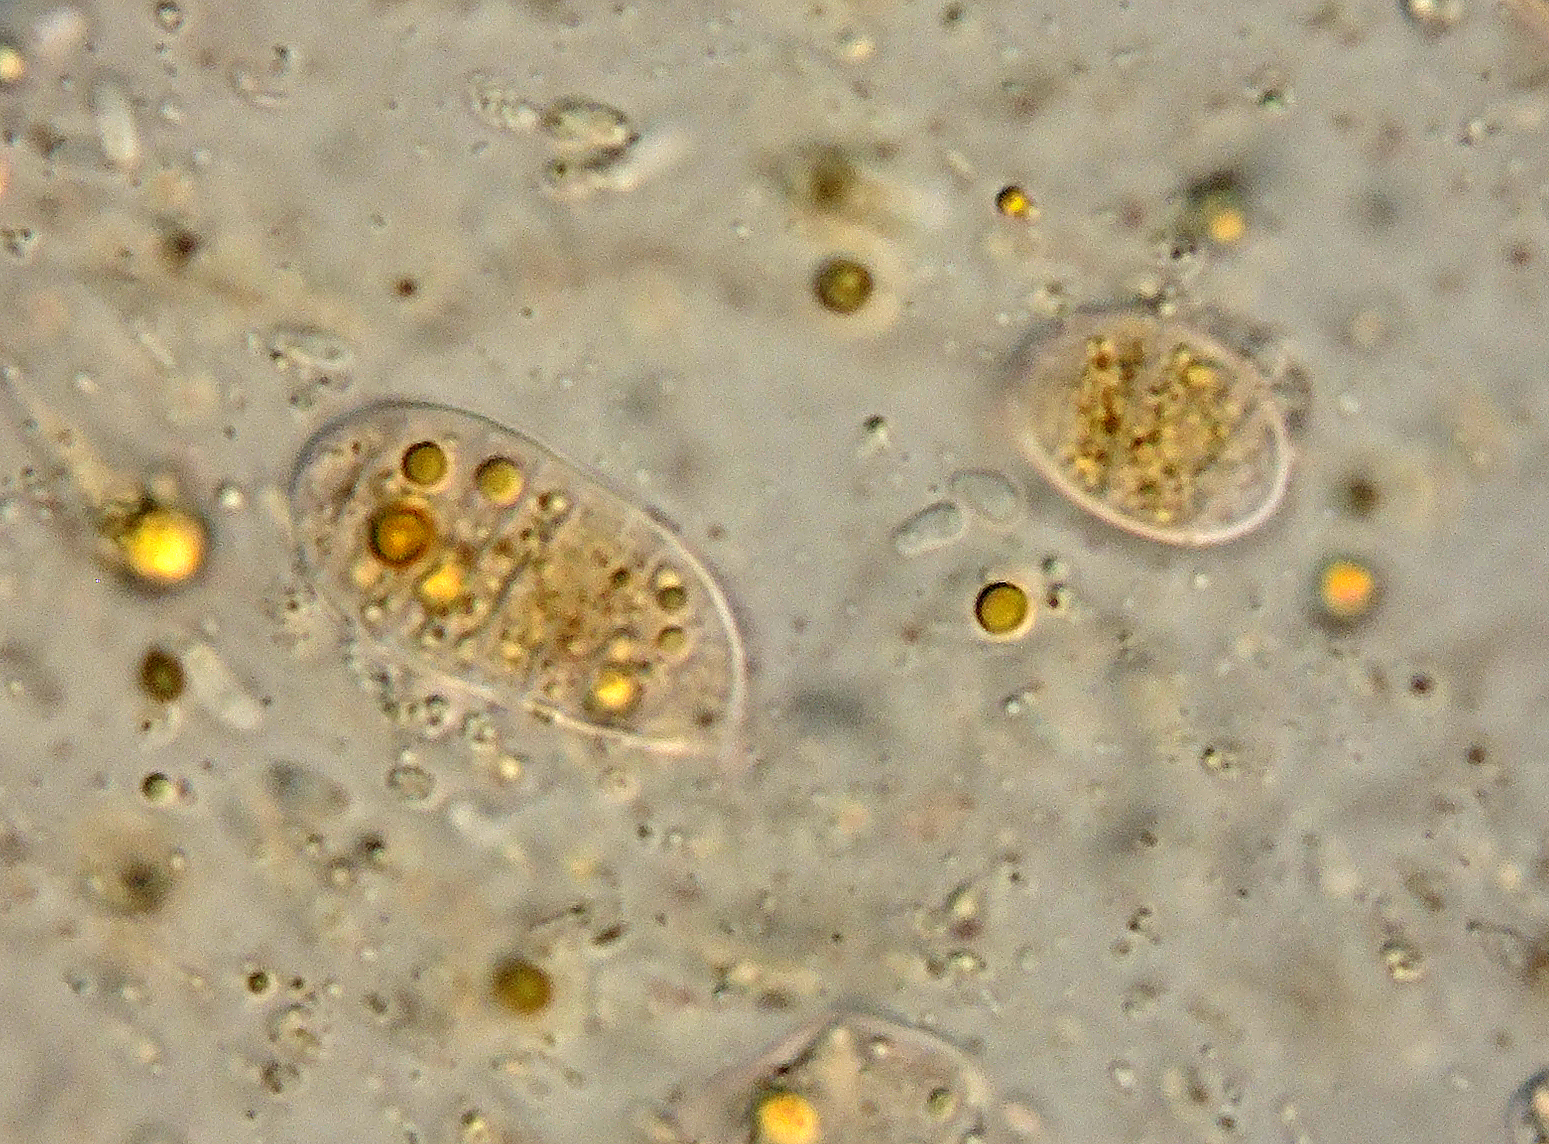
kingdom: Fungi
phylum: Basidiomycota
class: Dacrymycetes
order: Dacrymycetales
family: Dacrymycetaceae
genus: Guepiniopsis
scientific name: Guepiniopsis estonica
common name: gylden tåresvamp
